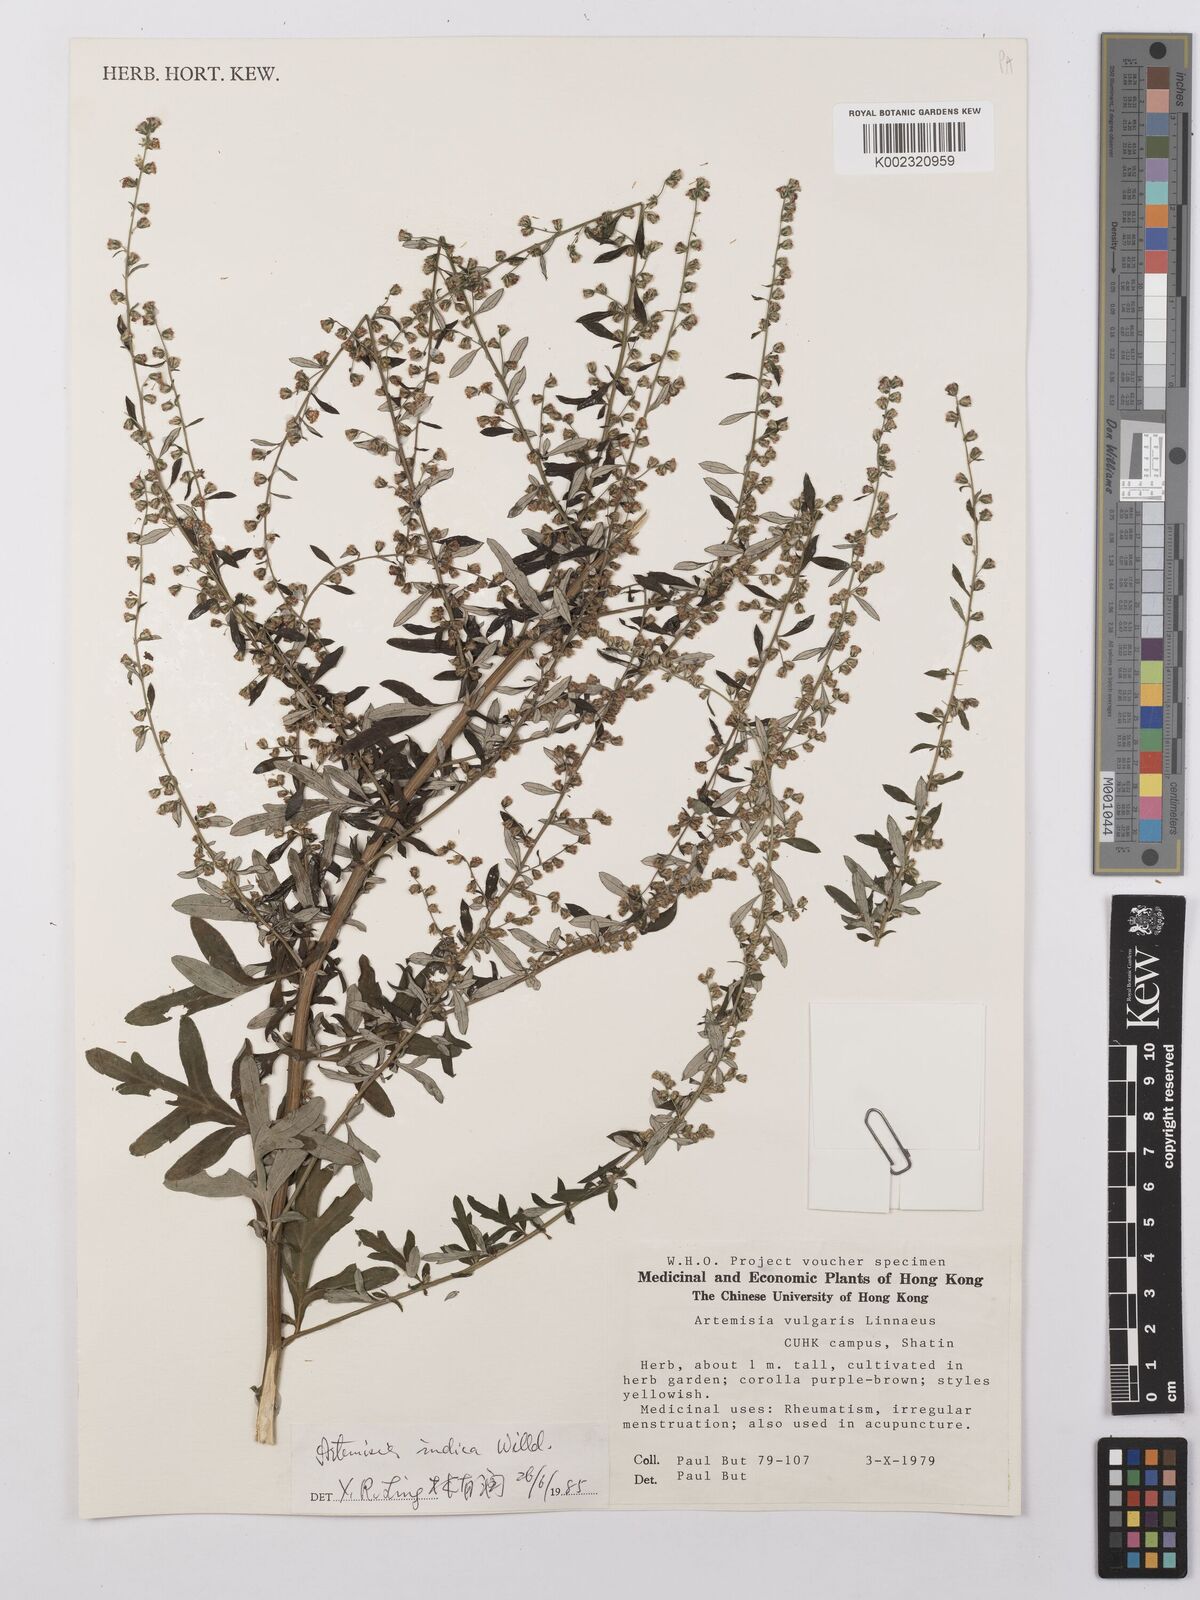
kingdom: Plantae
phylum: Tracheophyta
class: Magnoliopsida
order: Asterales
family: Asteraceae
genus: Artemisia
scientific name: Artemisia vulgaris
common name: Mugwort
